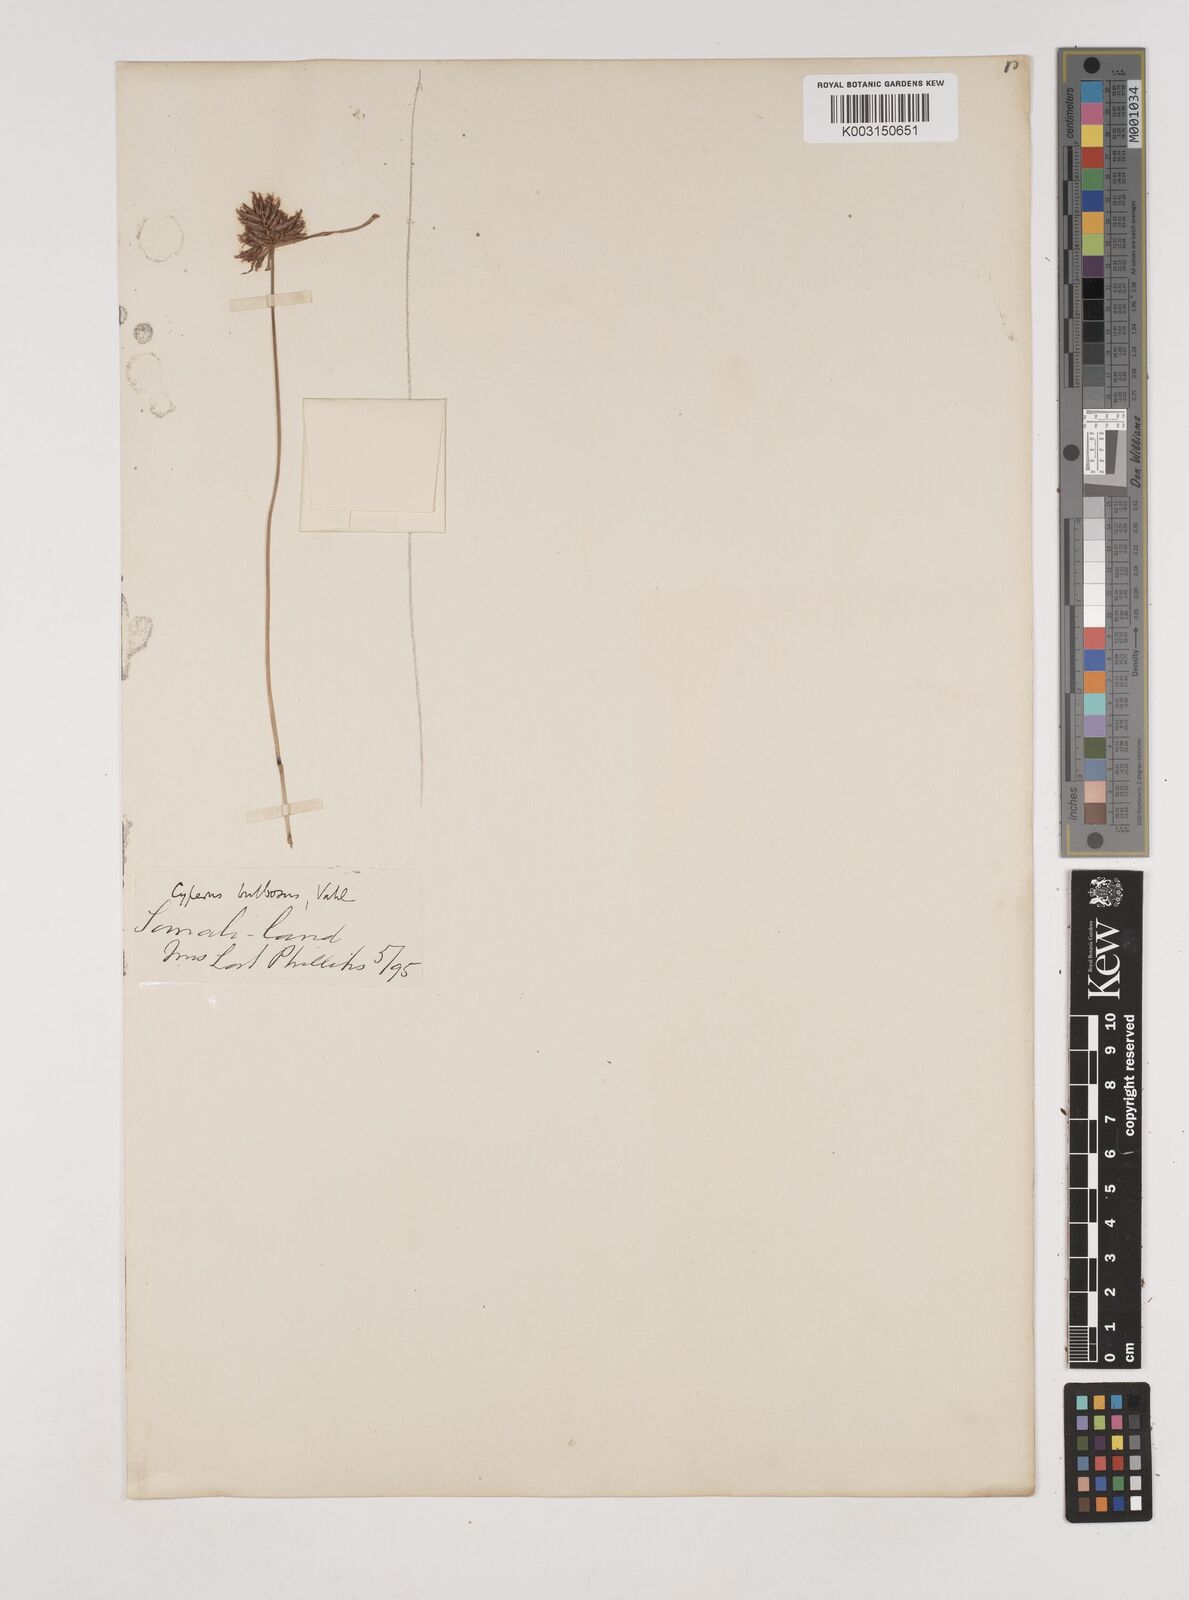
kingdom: Plantae
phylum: Tracheophyta
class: Liliopsida
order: Poales
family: Cyperaceae
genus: Cyperus
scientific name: Cyperus bulbosus
